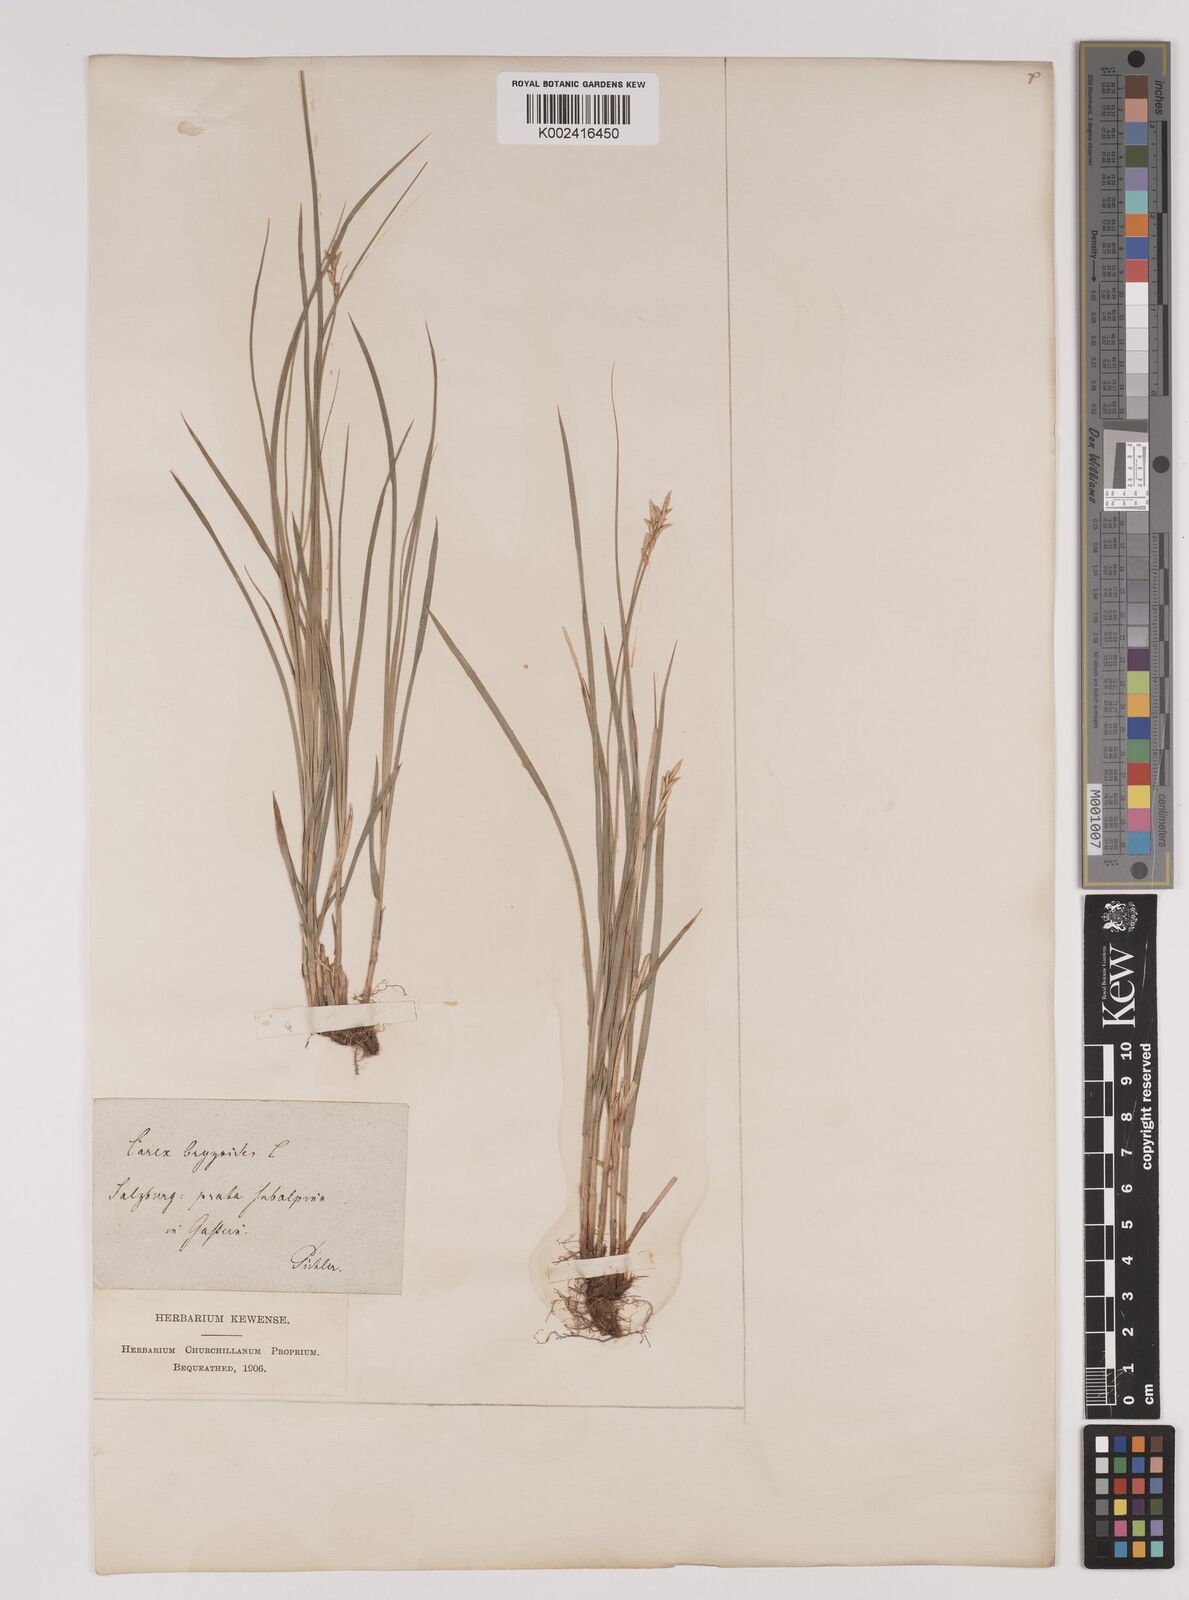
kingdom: Plantae
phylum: Tracheophyta
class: Liliopsida
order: Poales
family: Cyperaceae
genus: Carex
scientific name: Carex brizoides
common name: Quaking-grass sedge
